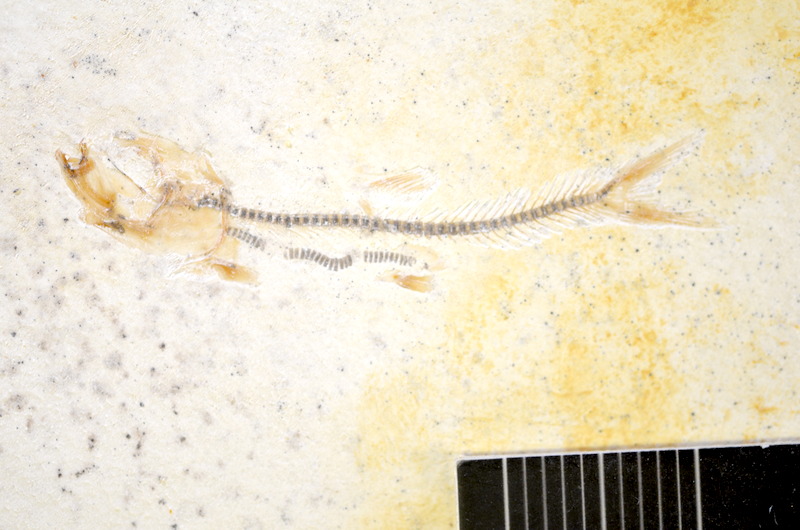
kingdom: Animalia
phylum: Chordata
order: Salmoniformes
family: Orthogonikleithridae
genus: Orthogonikleithrus
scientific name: Orthogonikleithrus hoelli
